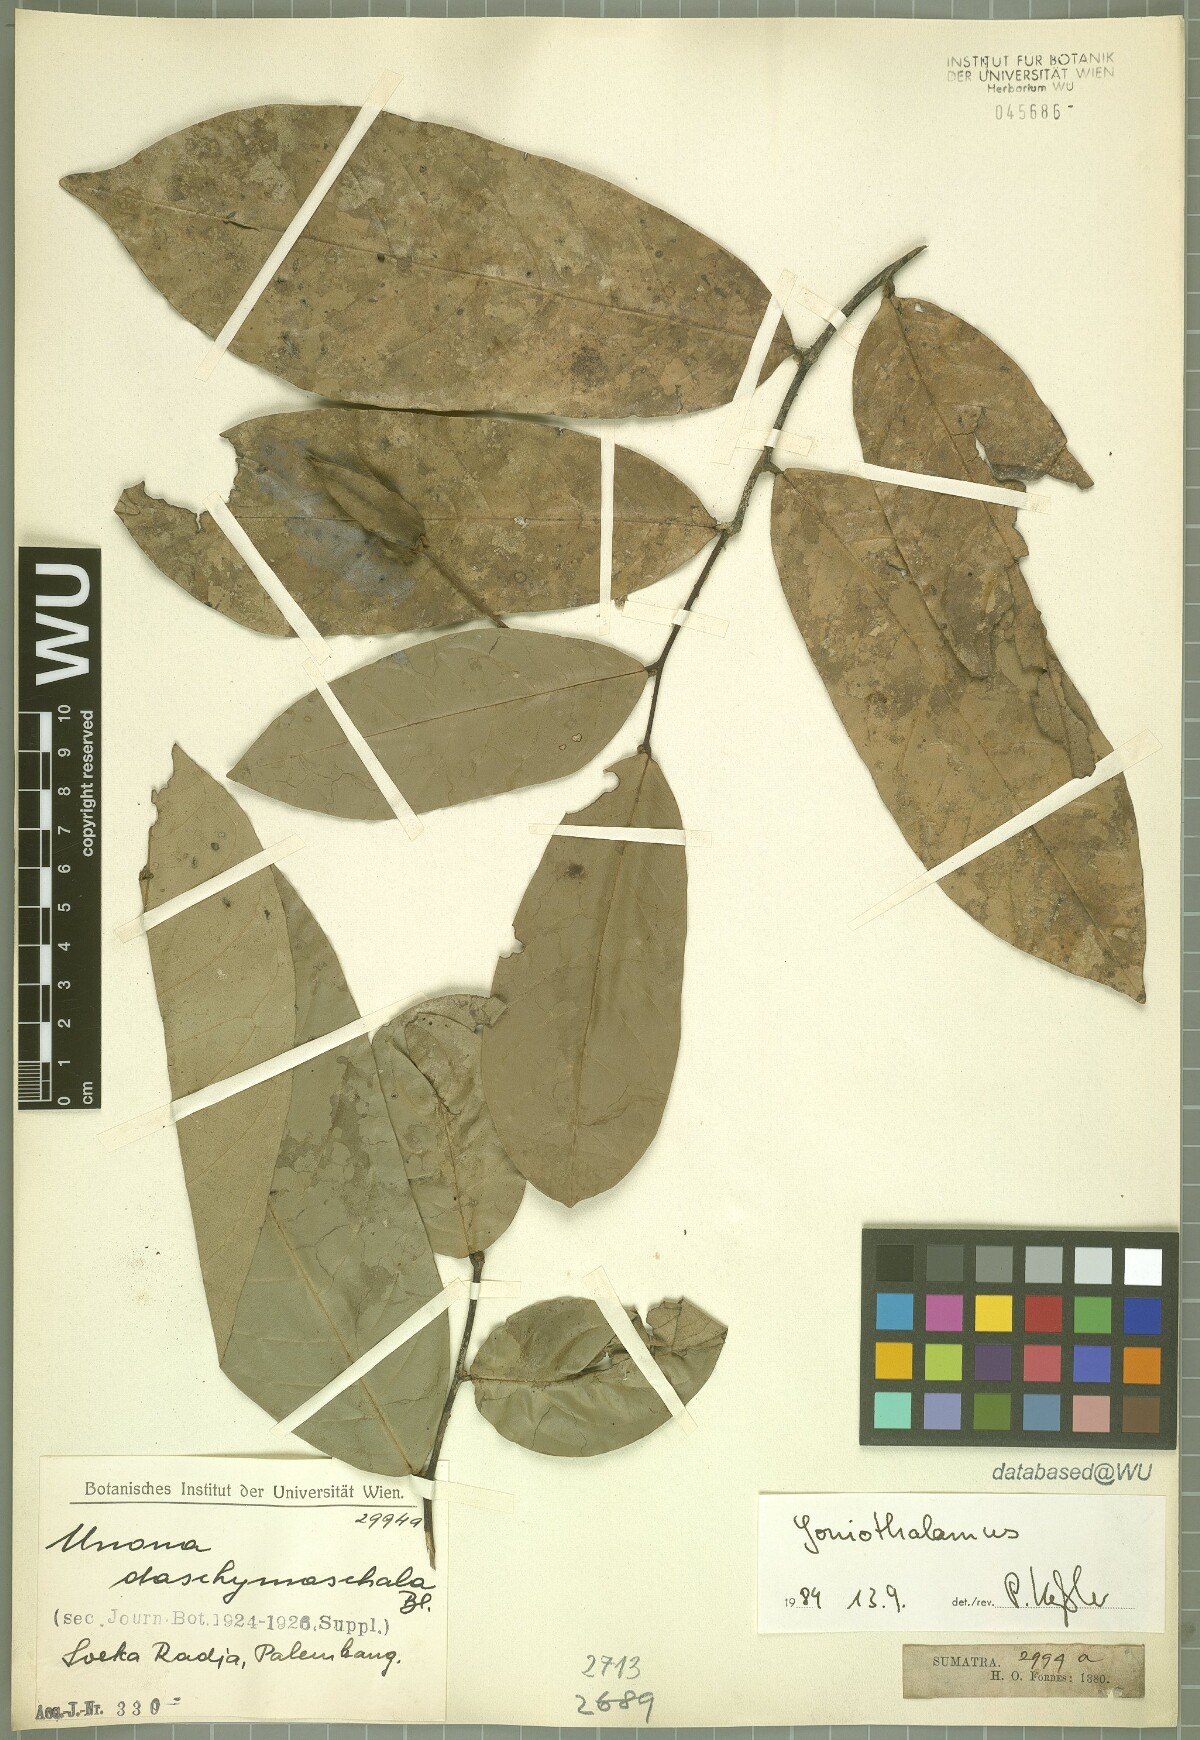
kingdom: Plantae
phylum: Tracheophyta
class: Magnoliopsida
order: Magnoliales
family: Annonaceae
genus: Goniothalamus
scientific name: Goniothalamus
